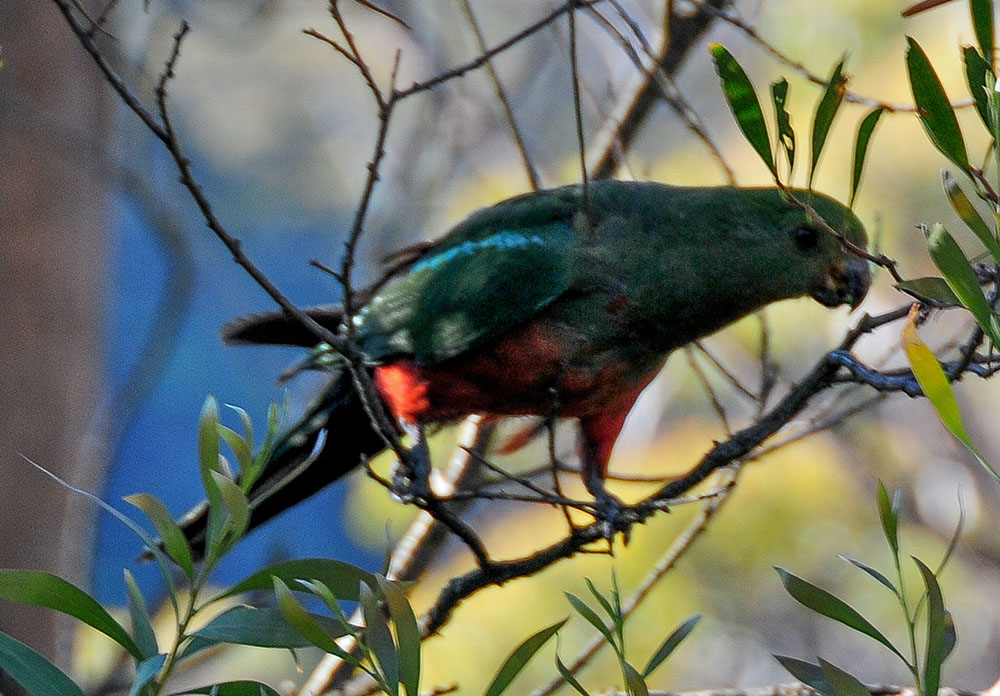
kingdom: Animalia
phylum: Chordata
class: Aves
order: Psittaciformes
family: Psittacidae
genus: Alisterus
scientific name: Alisterus scapularis
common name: Australian king parrot
